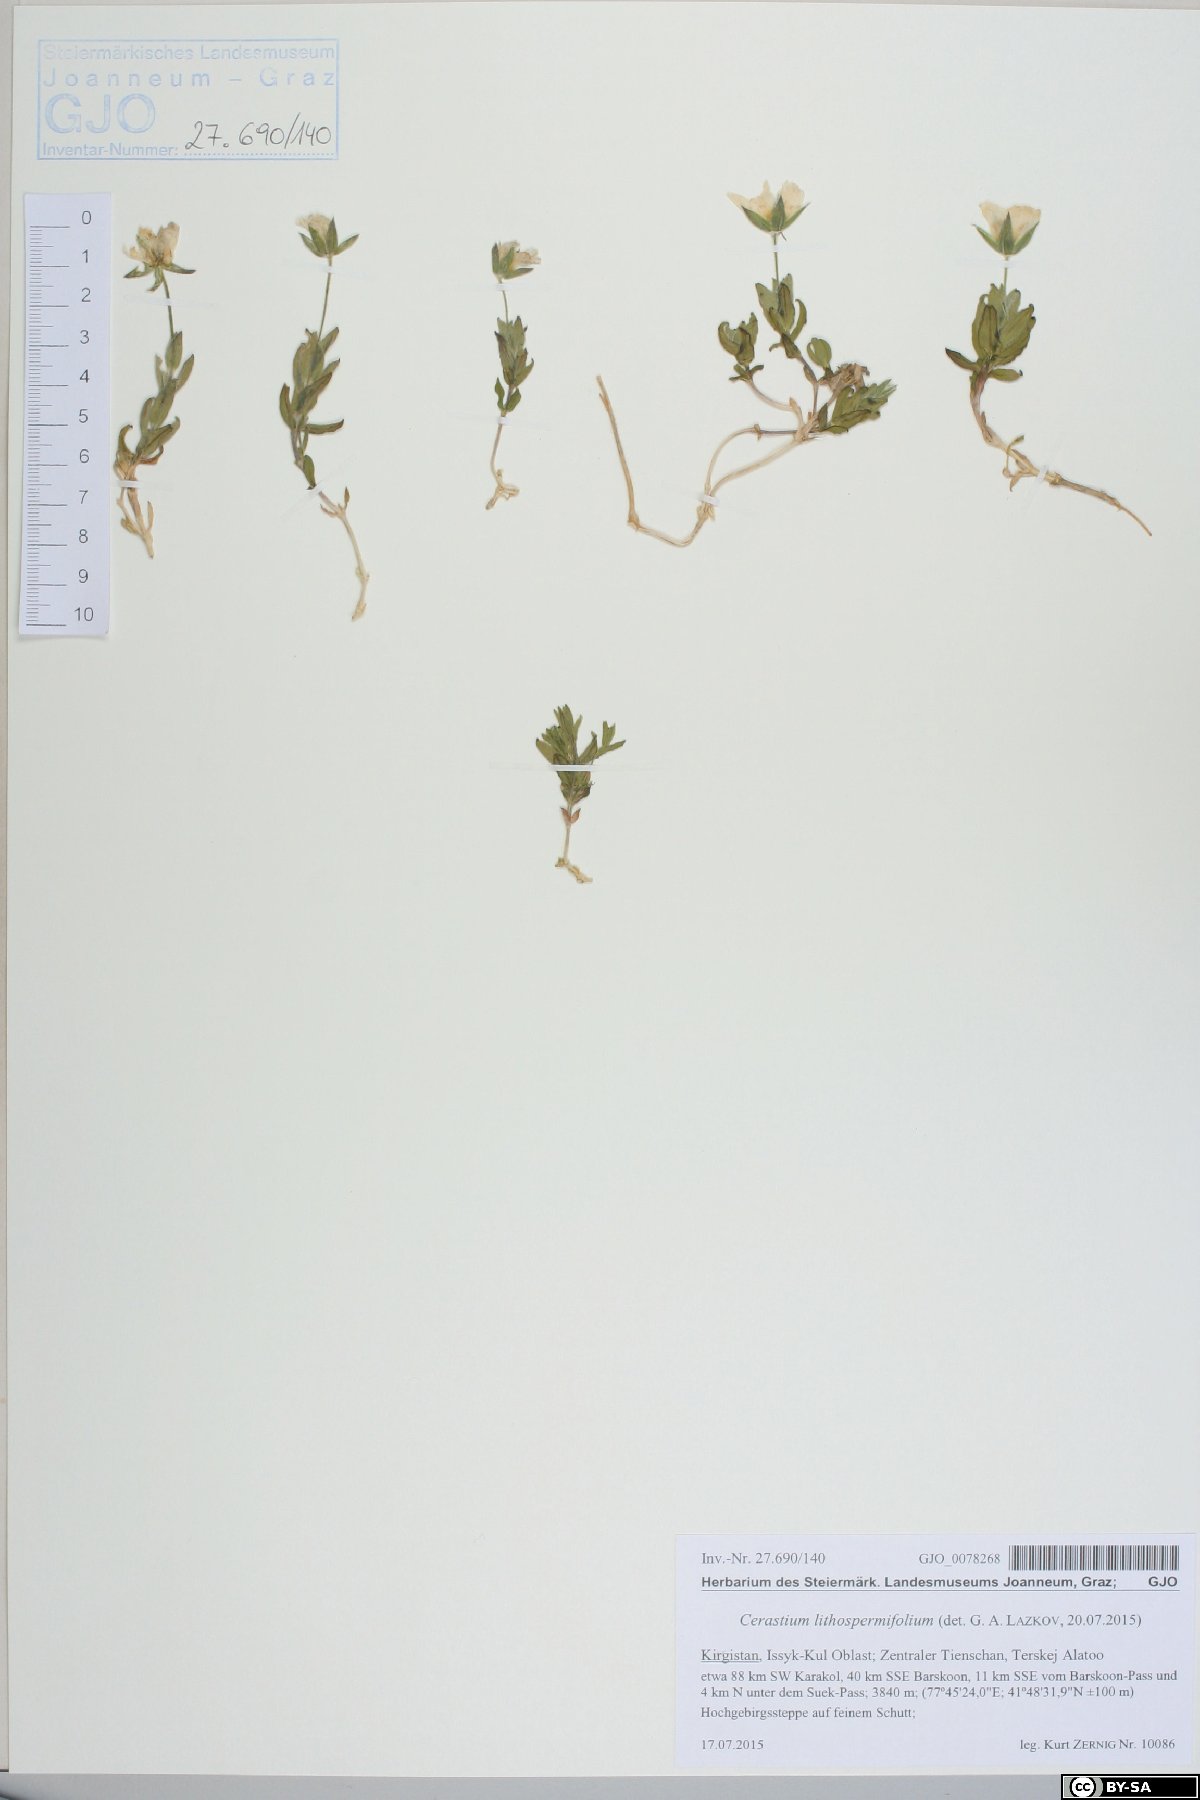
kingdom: Plantae
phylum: Tracheophyta
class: Magnoliopsida
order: Caryophyllales
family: Caryophyllaceae
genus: Cerastium
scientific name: Cerastium lithospermifolium
